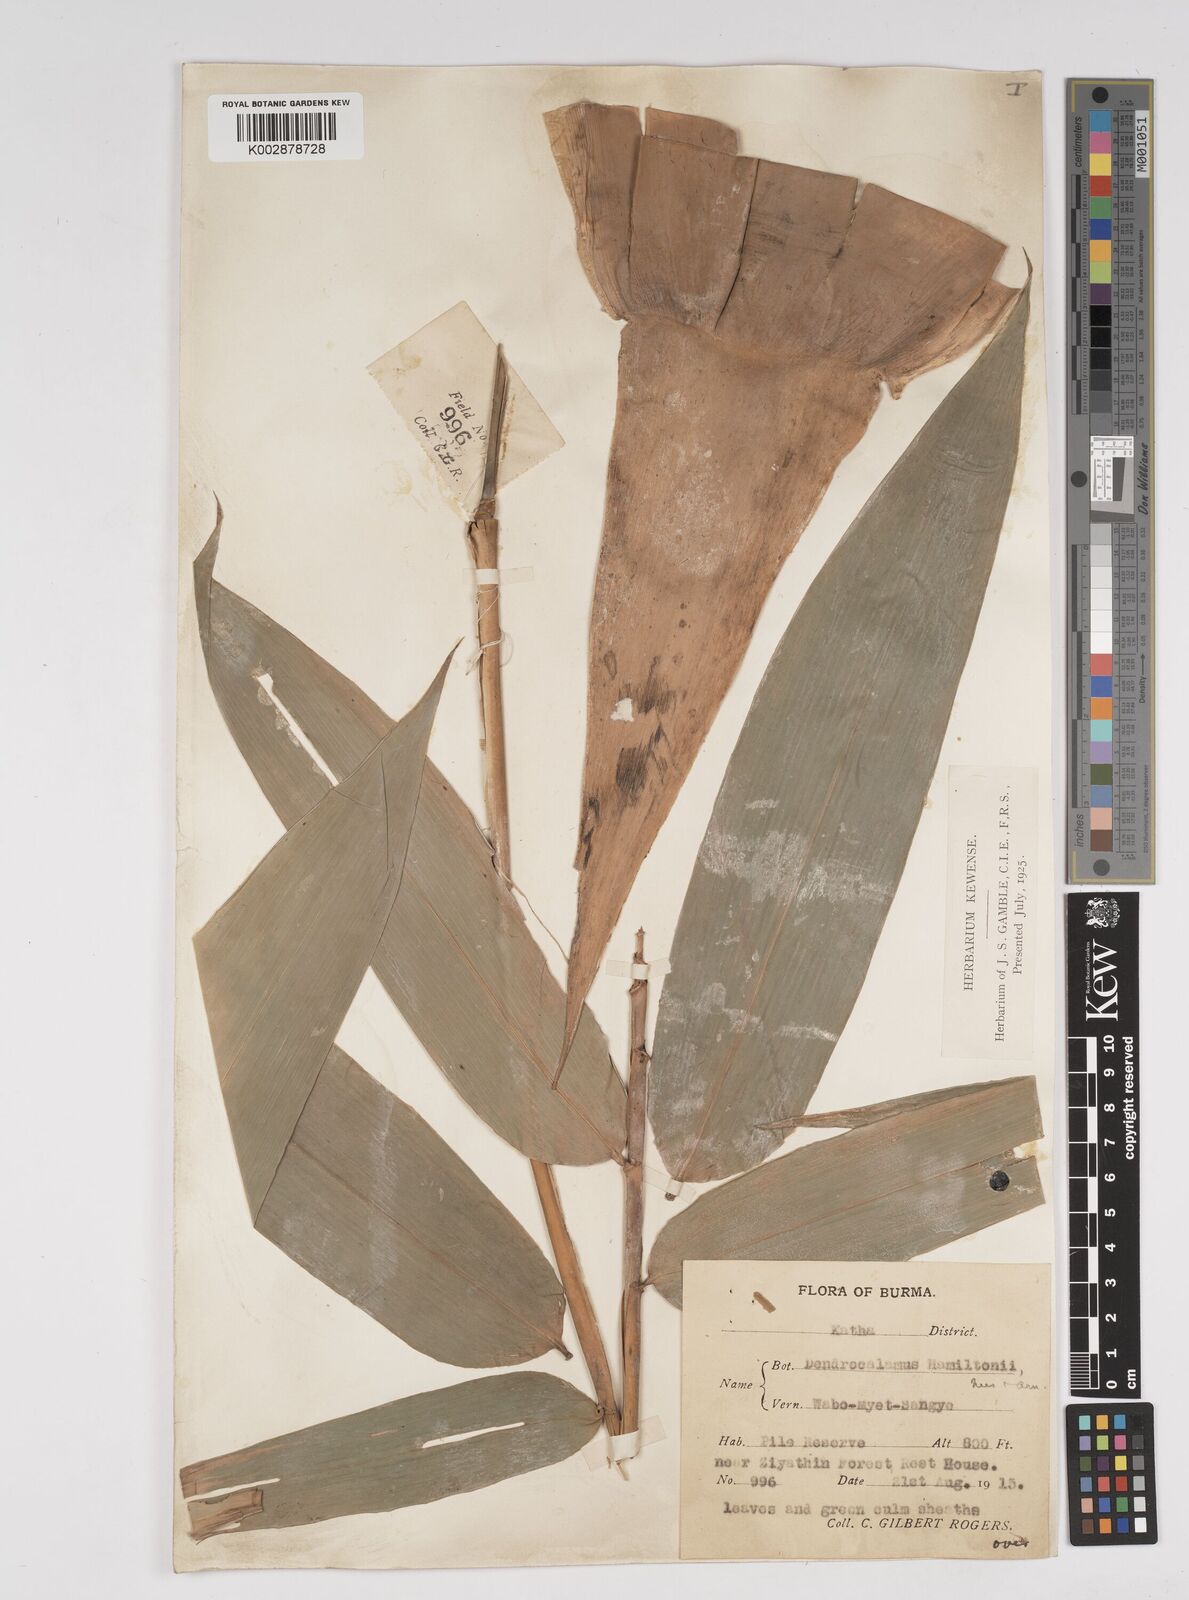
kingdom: Plantae
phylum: Tracheophyta
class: Liliopsida
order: Poales
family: Poaceae
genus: Dendrocalamus
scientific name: Dendrocalamus hamiltonii
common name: Tama bamboo
